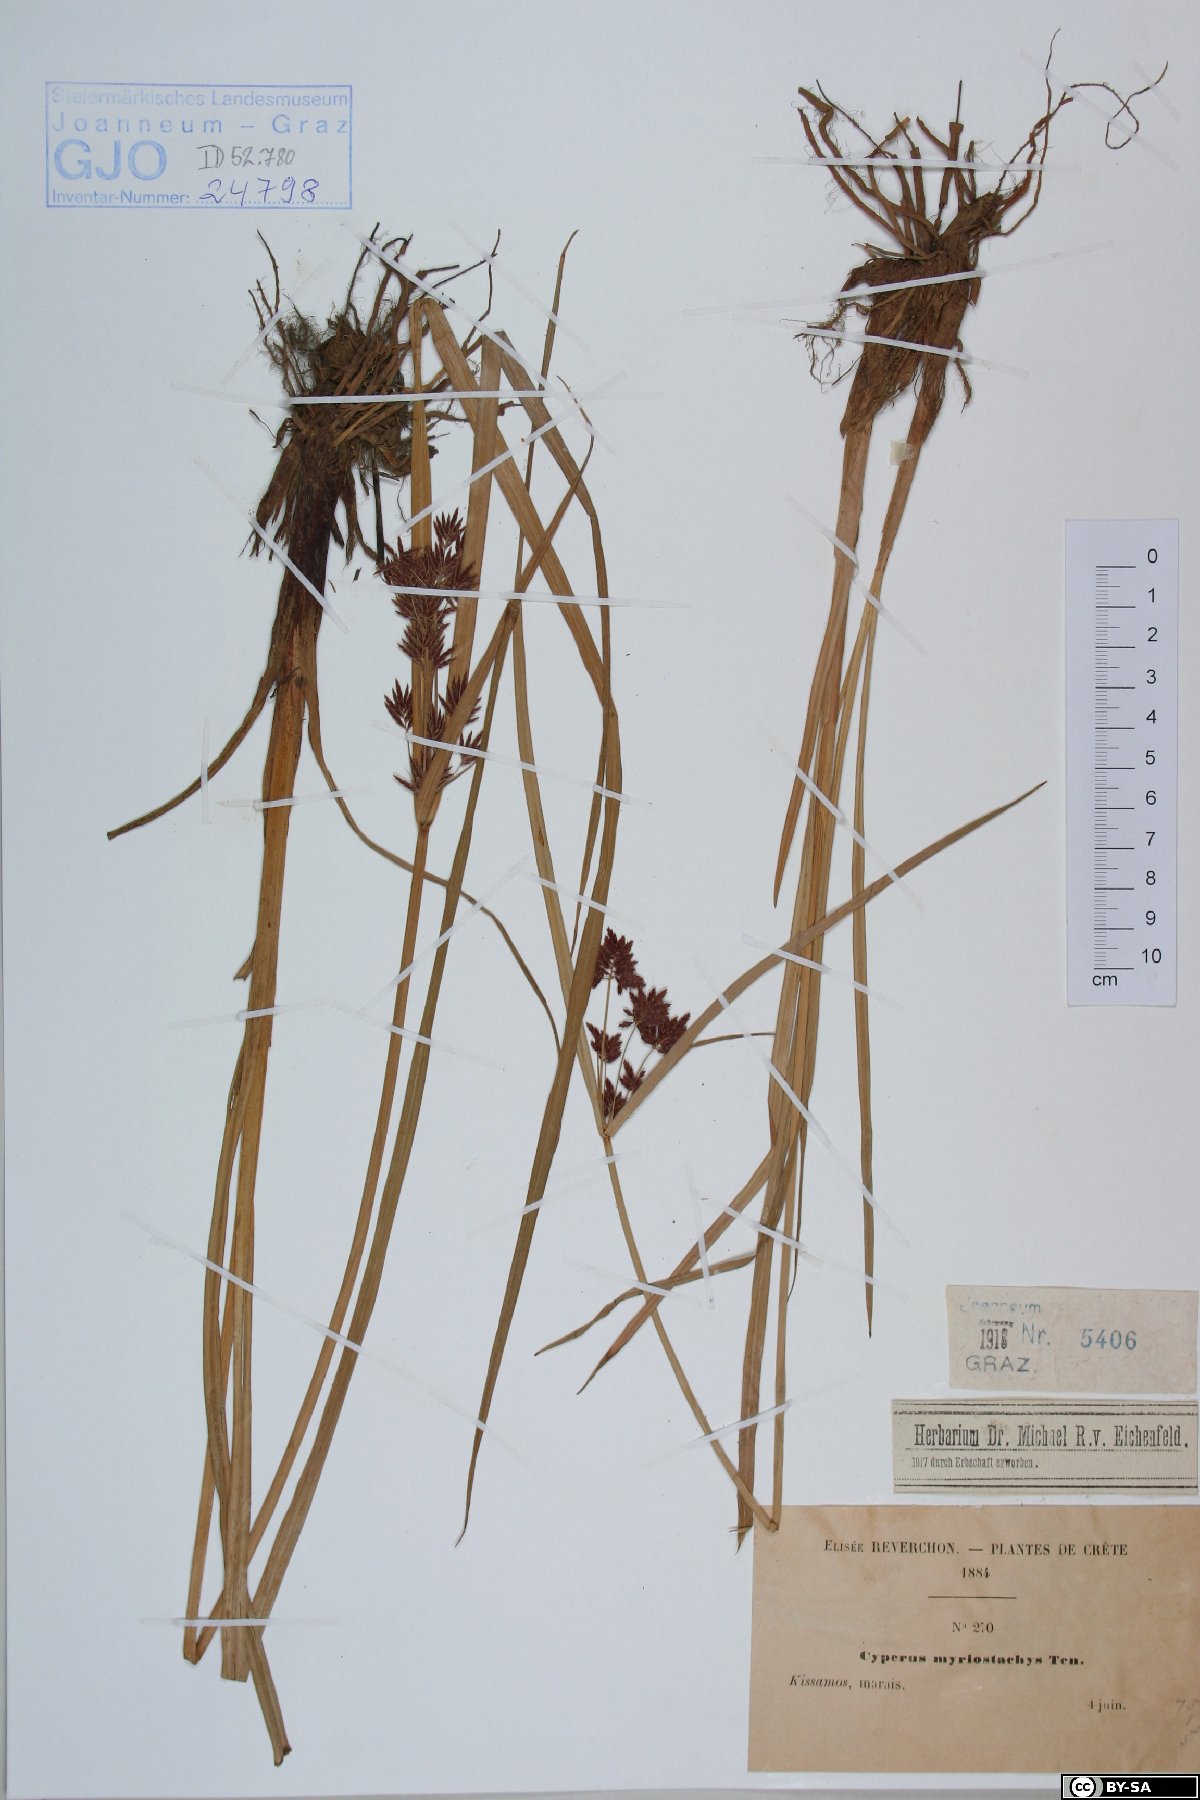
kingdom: Plantae
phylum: Tracheophyta
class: Liliopsida
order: Poales
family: Cyperaceae
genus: Cyperus
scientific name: Cyperus longus
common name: Galingale
